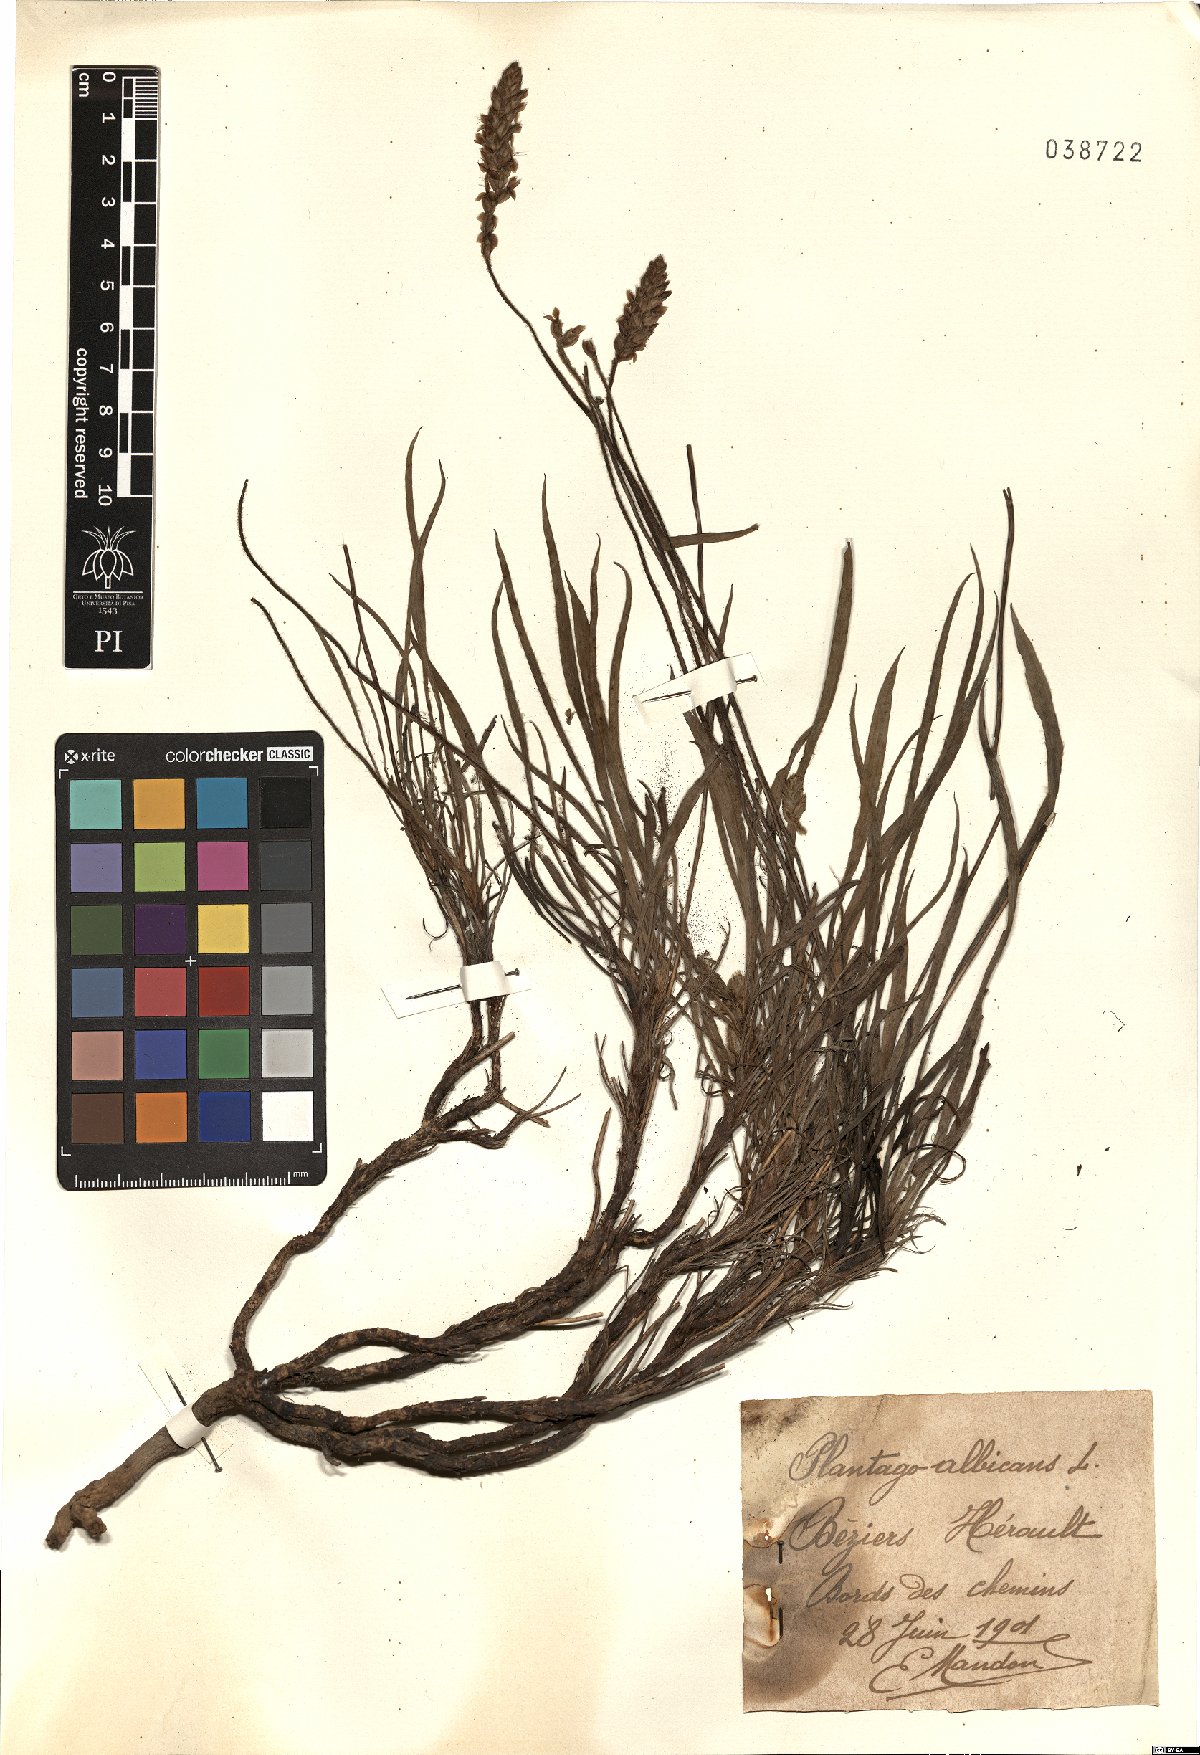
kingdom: Plantae
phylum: Tracheophyta
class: Magnoliopsida
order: Lamiales
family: Plantaginaceae
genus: Plantago
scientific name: Plantago albicans
